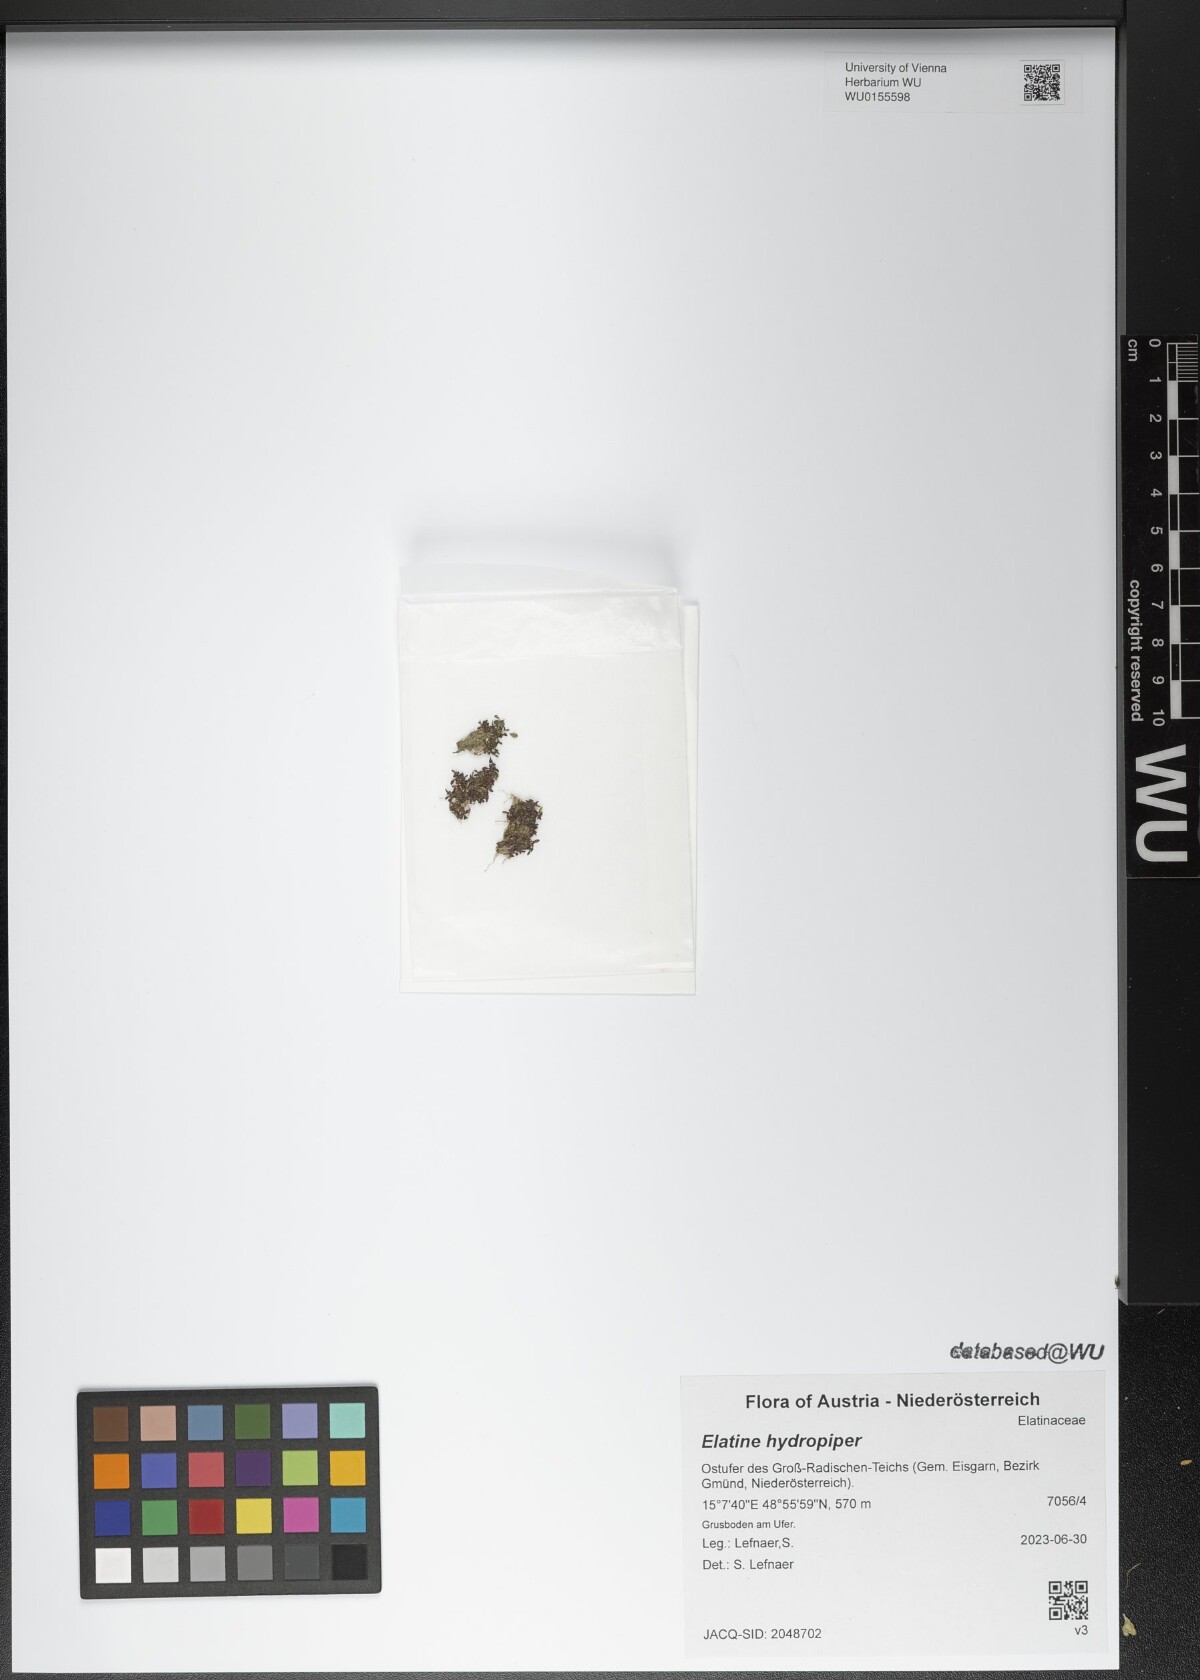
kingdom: Plantae
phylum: Tracheophyta
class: Magnoliopsida
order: Malpighiales
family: Elatinaceae
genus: Elatine
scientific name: Elatine hydropiper
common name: Eight-stamened waterwort
